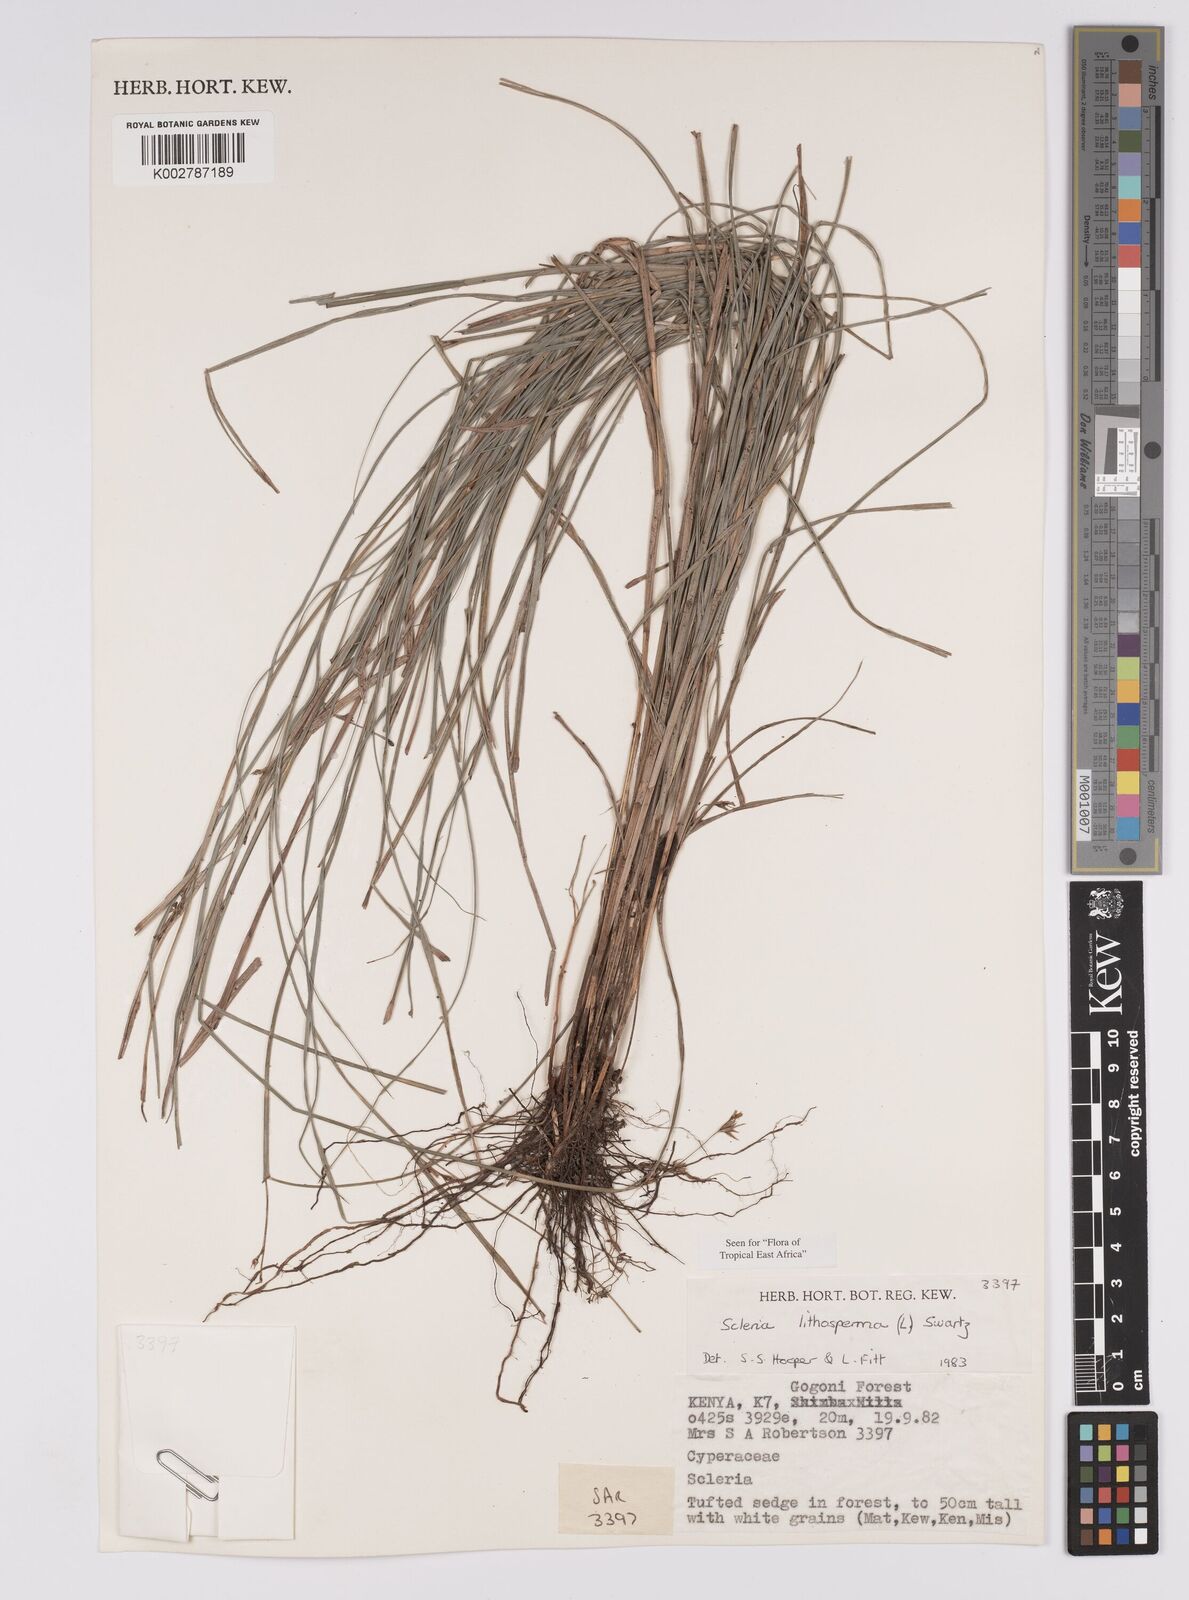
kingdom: Plantae
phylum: Tracheophyta
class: Liliopsida
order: Poales
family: Cyperaceae
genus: Scleria
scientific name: Scleria lithosperma
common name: Florida keys nut-rush
